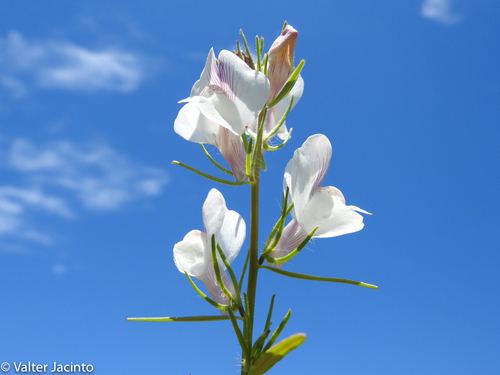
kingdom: Plantae
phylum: Tracheophyta
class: Magnoliopsida
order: Lamiales
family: Plantaginaceae
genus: Misopates
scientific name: Misopates calycinum
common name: Pale weasel's-snout
